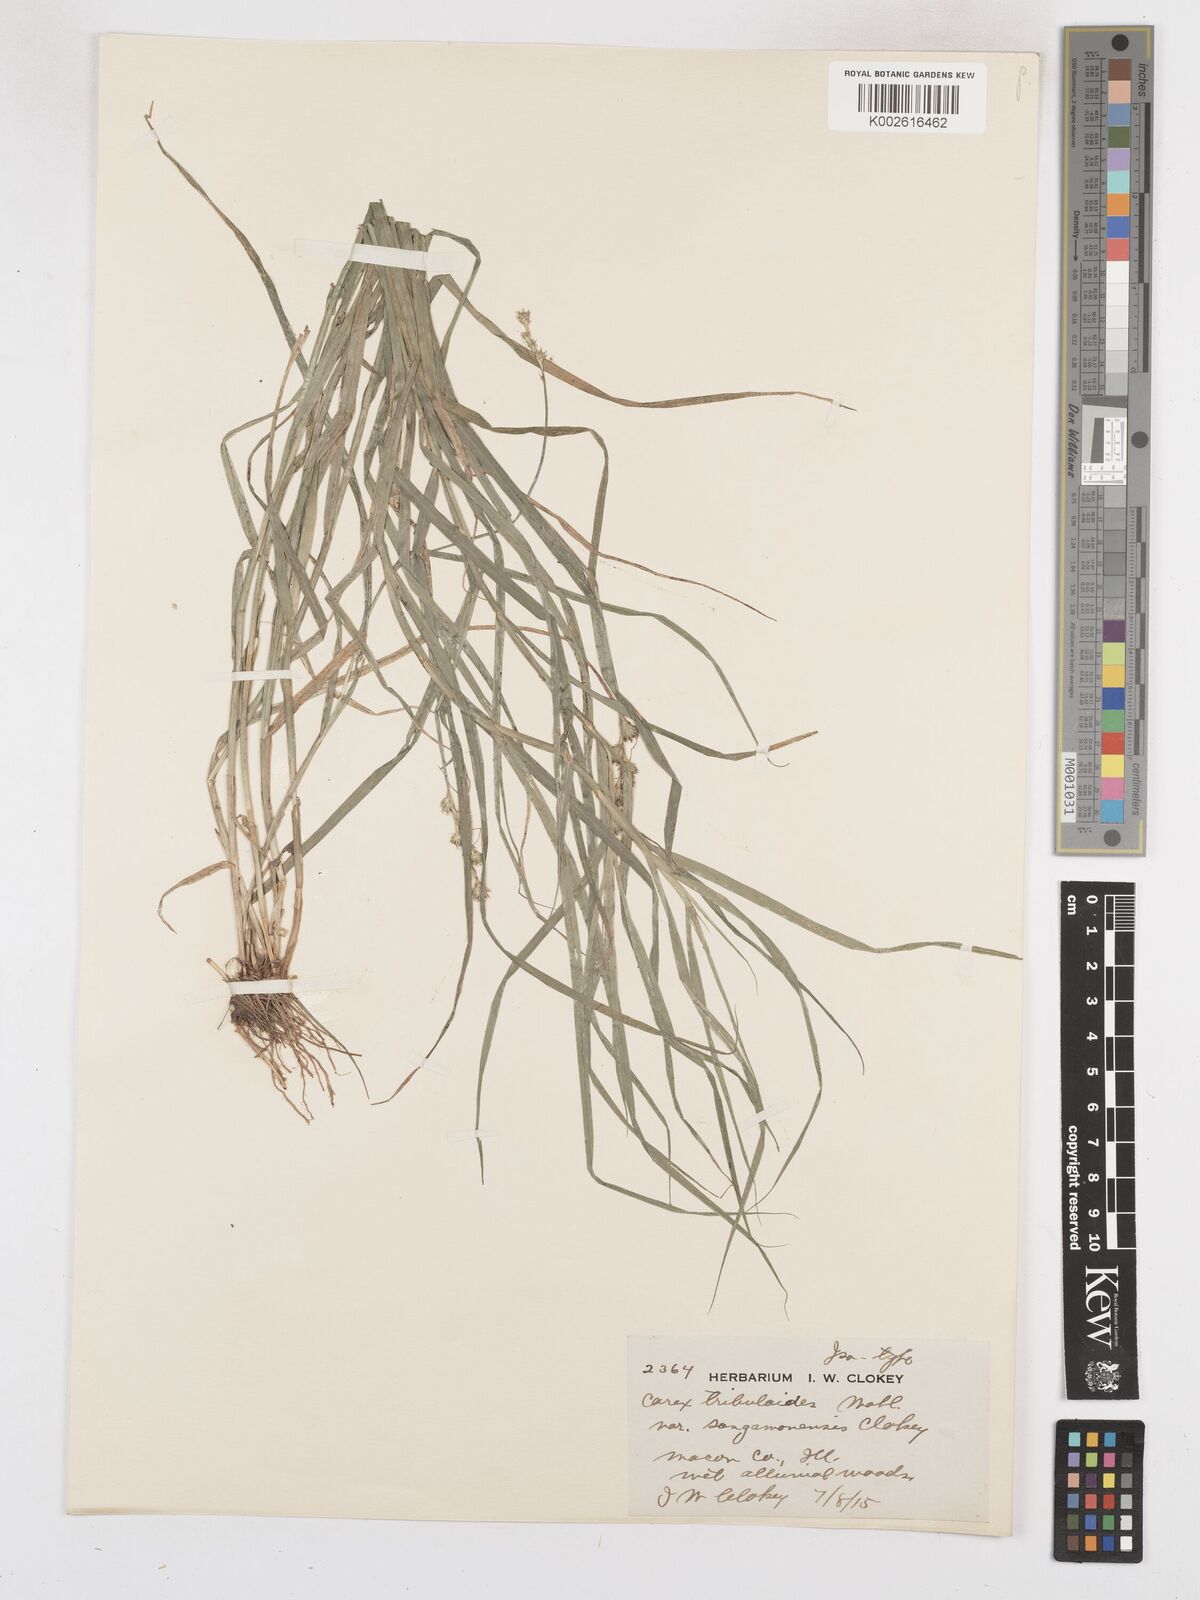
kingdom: Plantae
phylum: Tracheophyta
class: Liliopsida
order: Poales
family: Cyperaceae
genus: Carex
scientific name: Carex tribuloides
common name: Blunt broom sedge
